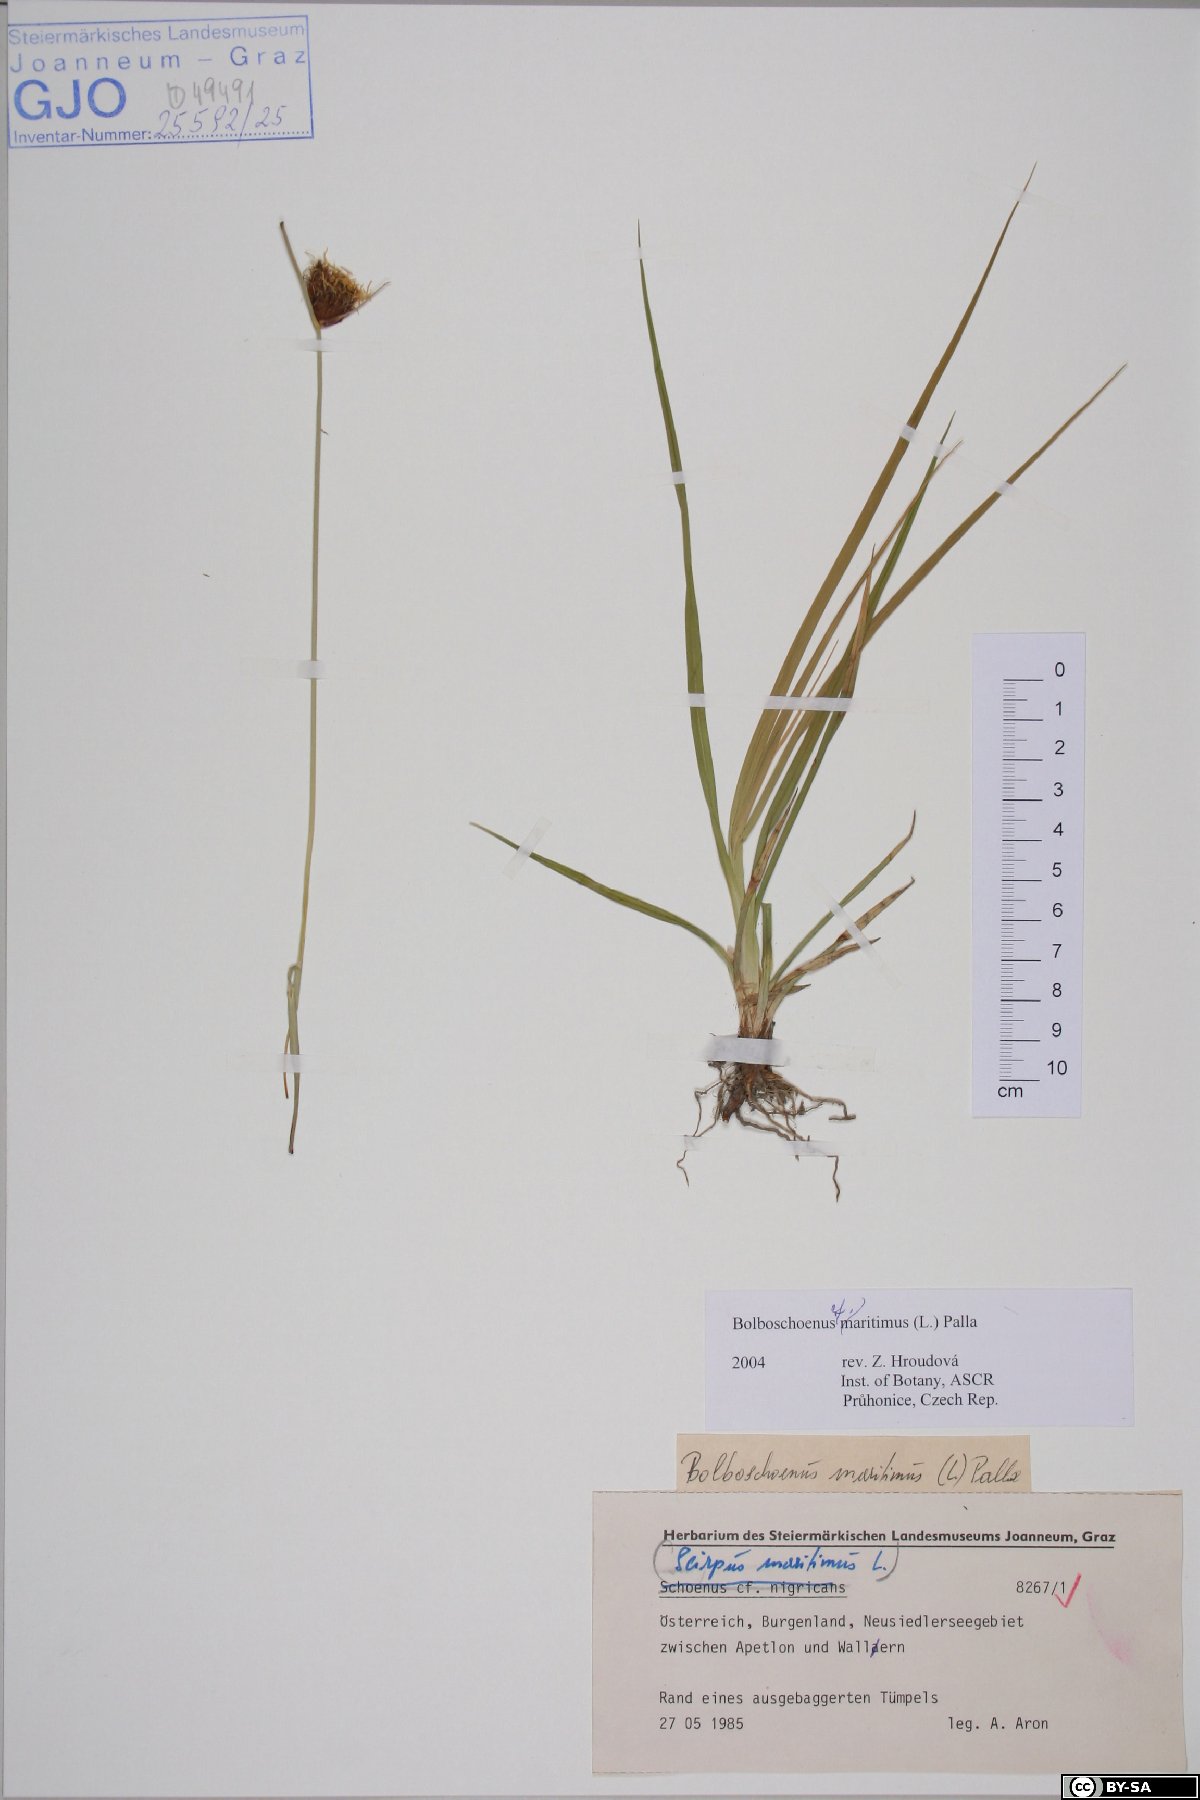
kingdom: Plantae
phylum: Tracheophyta
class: Liliopsida
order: Poales
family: Cyperaceae
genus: Bolboschoenus
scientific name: Bolboschoenus maritimus
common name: Sea club-rush
